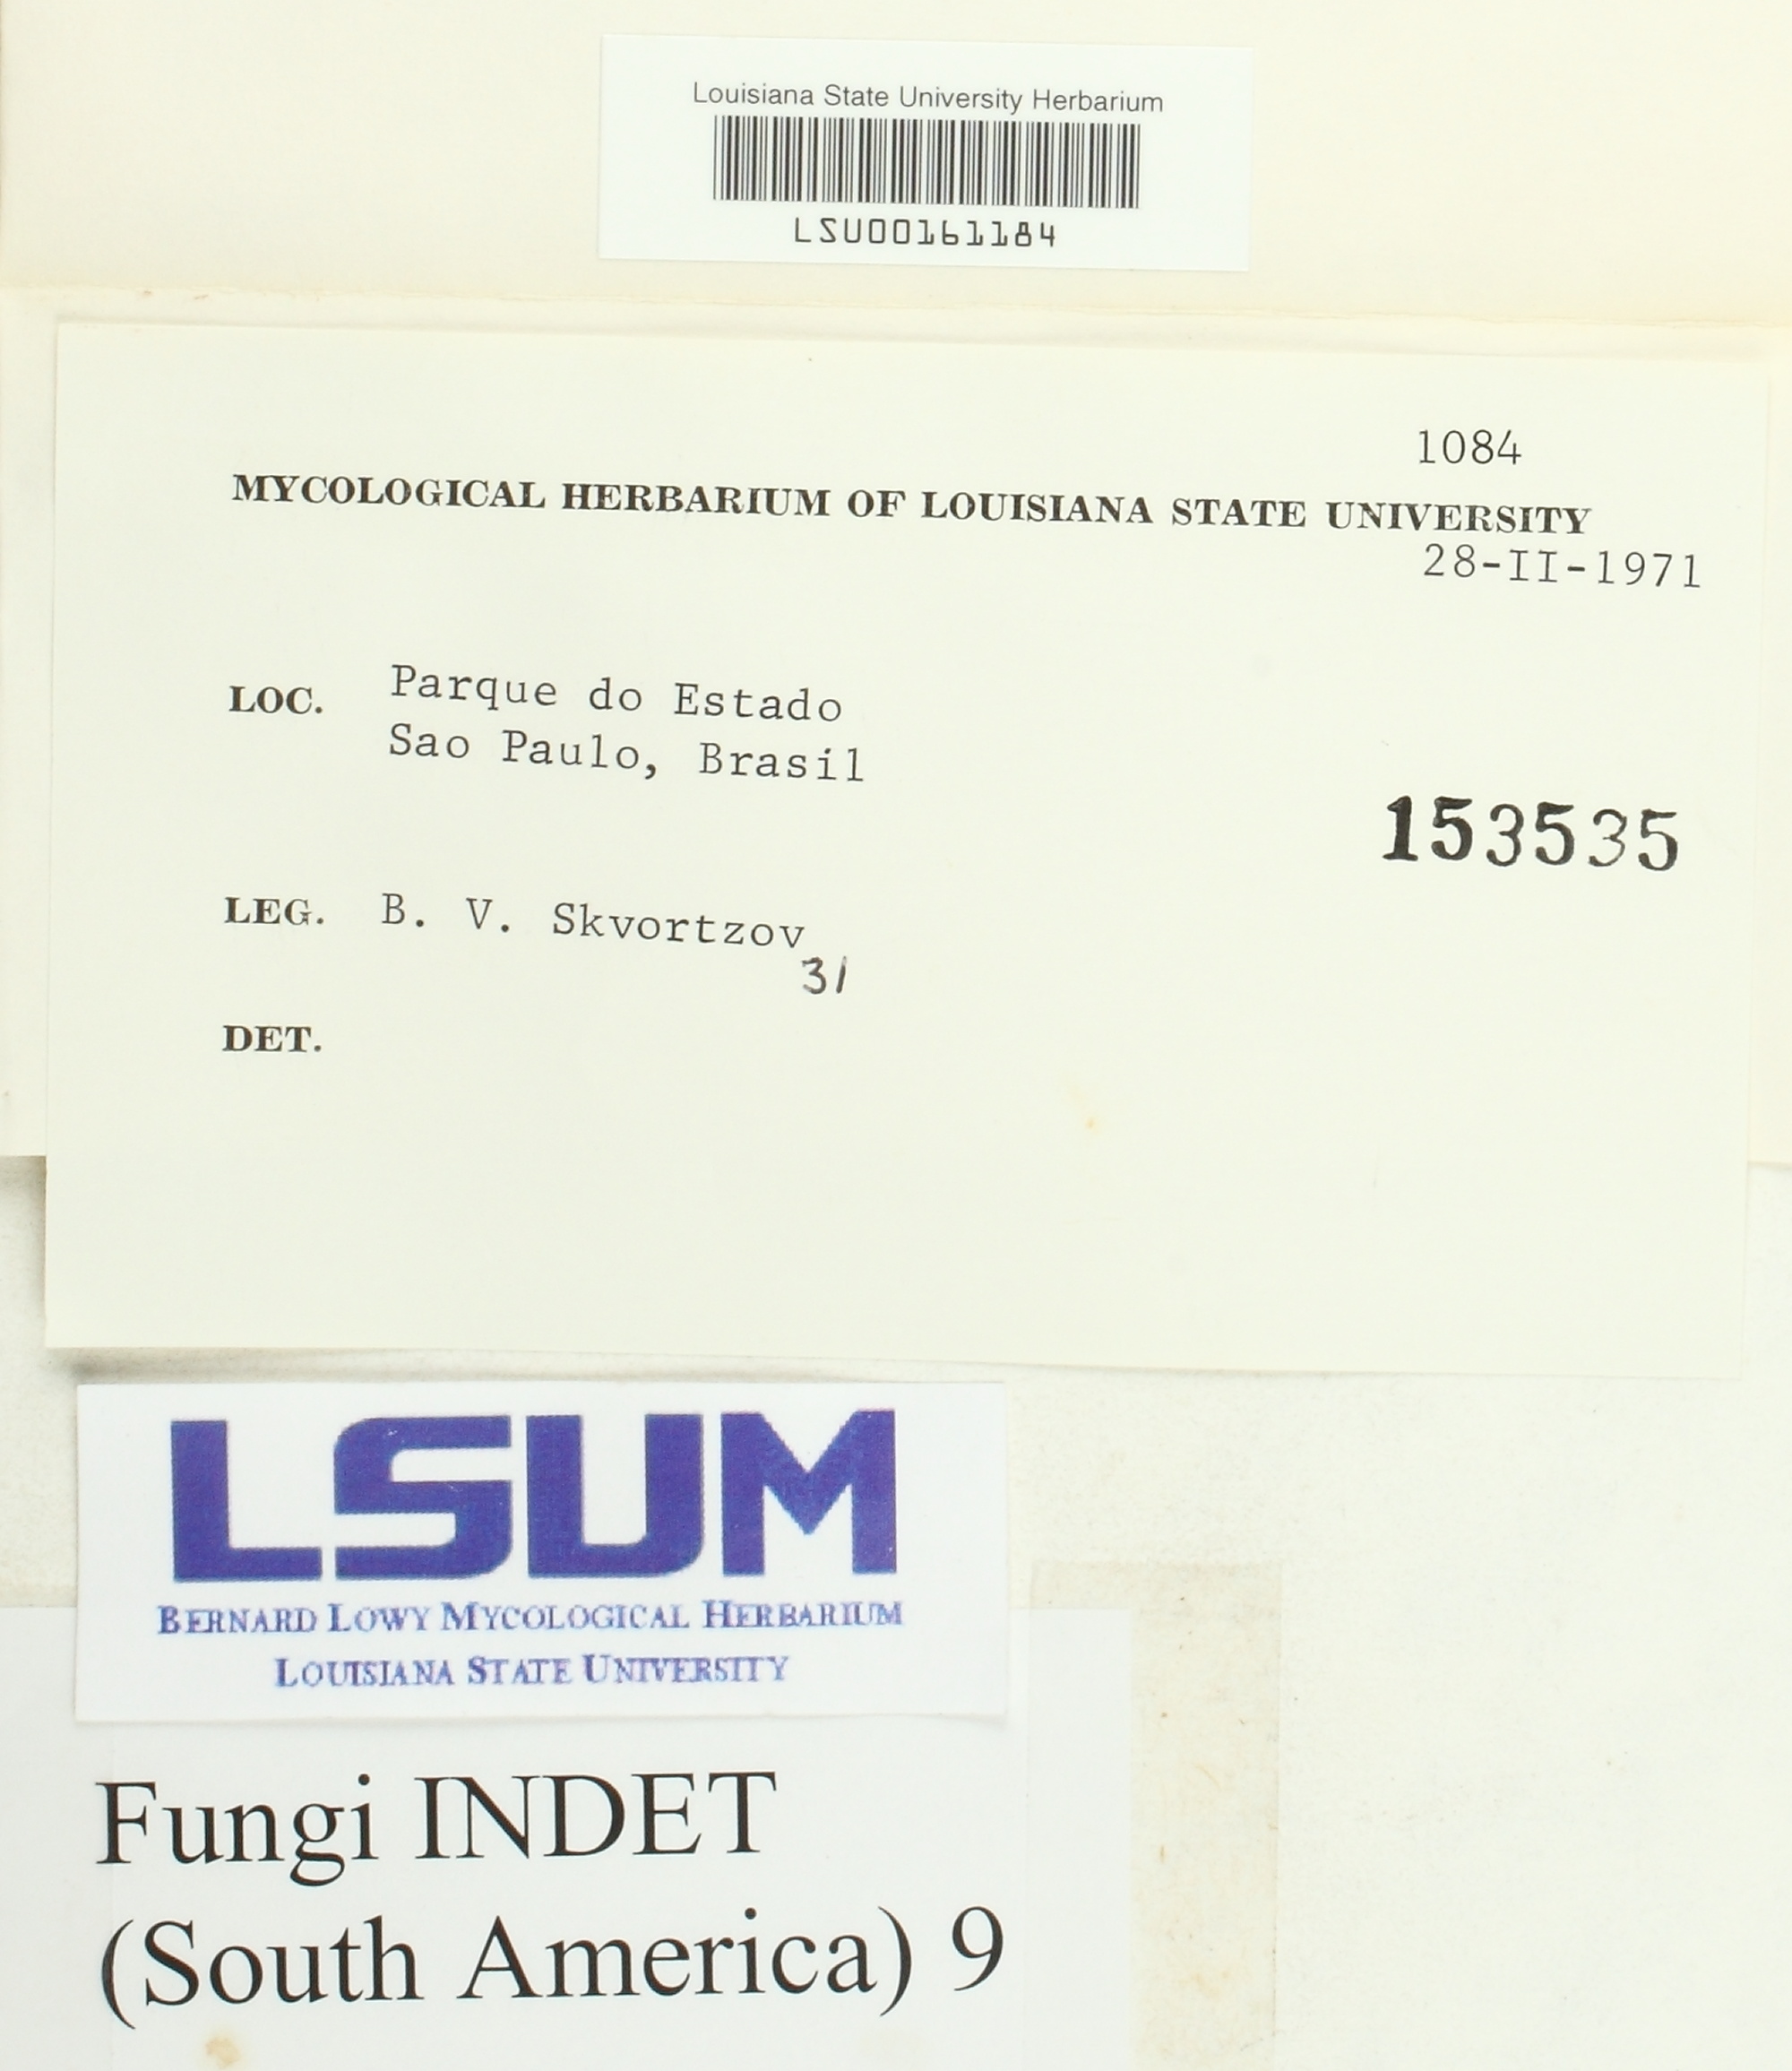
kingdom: Fungi
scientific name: Fungi
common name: Fungi
